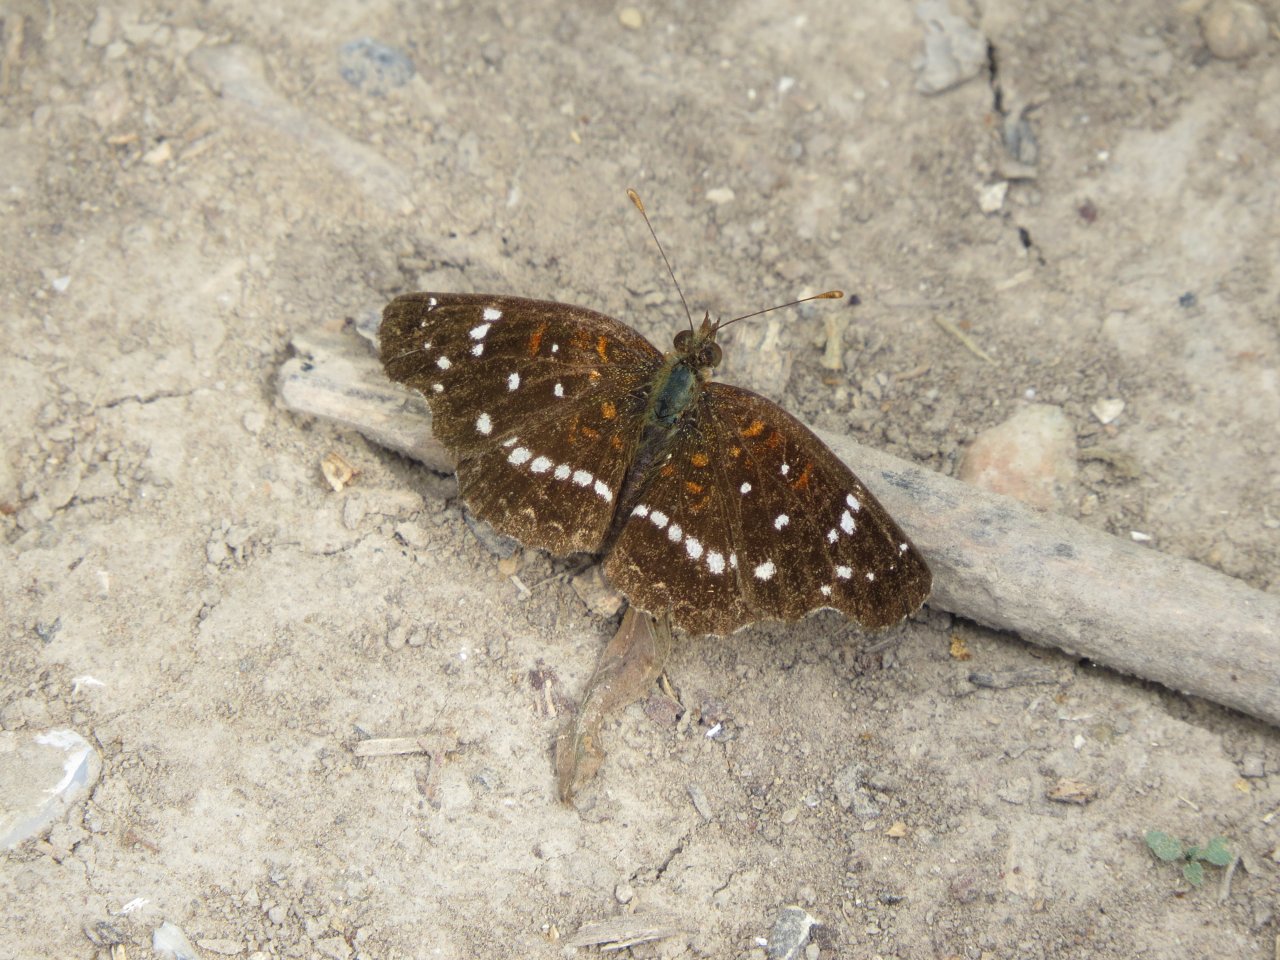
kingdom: Animalia
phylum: Arthropoda
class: Insecta
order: Lepidoptera
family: Nymphalidae
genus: Anthanassa
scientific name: Anthanassa ptolyca
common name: Black Crescent
